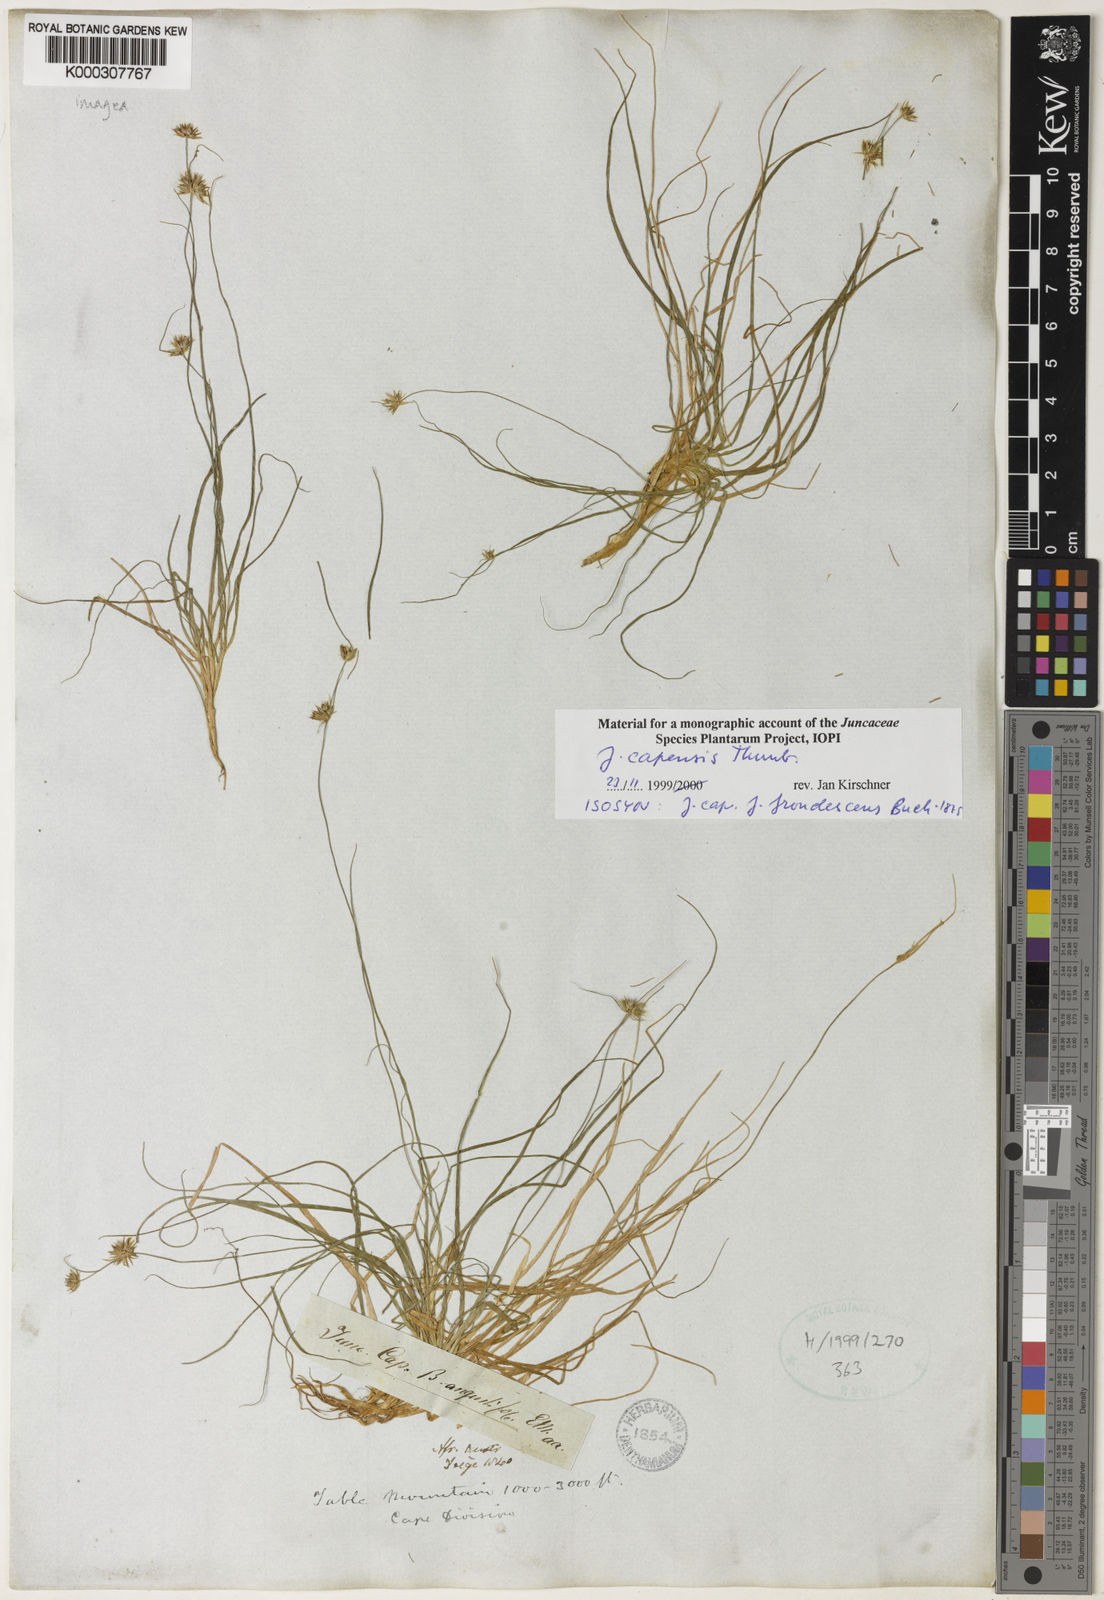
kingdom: Plantae
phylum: Tracheophyta
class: Liliopsida
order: Poales
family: Juncaceae
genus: Juncus
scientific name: Juncus capensis
